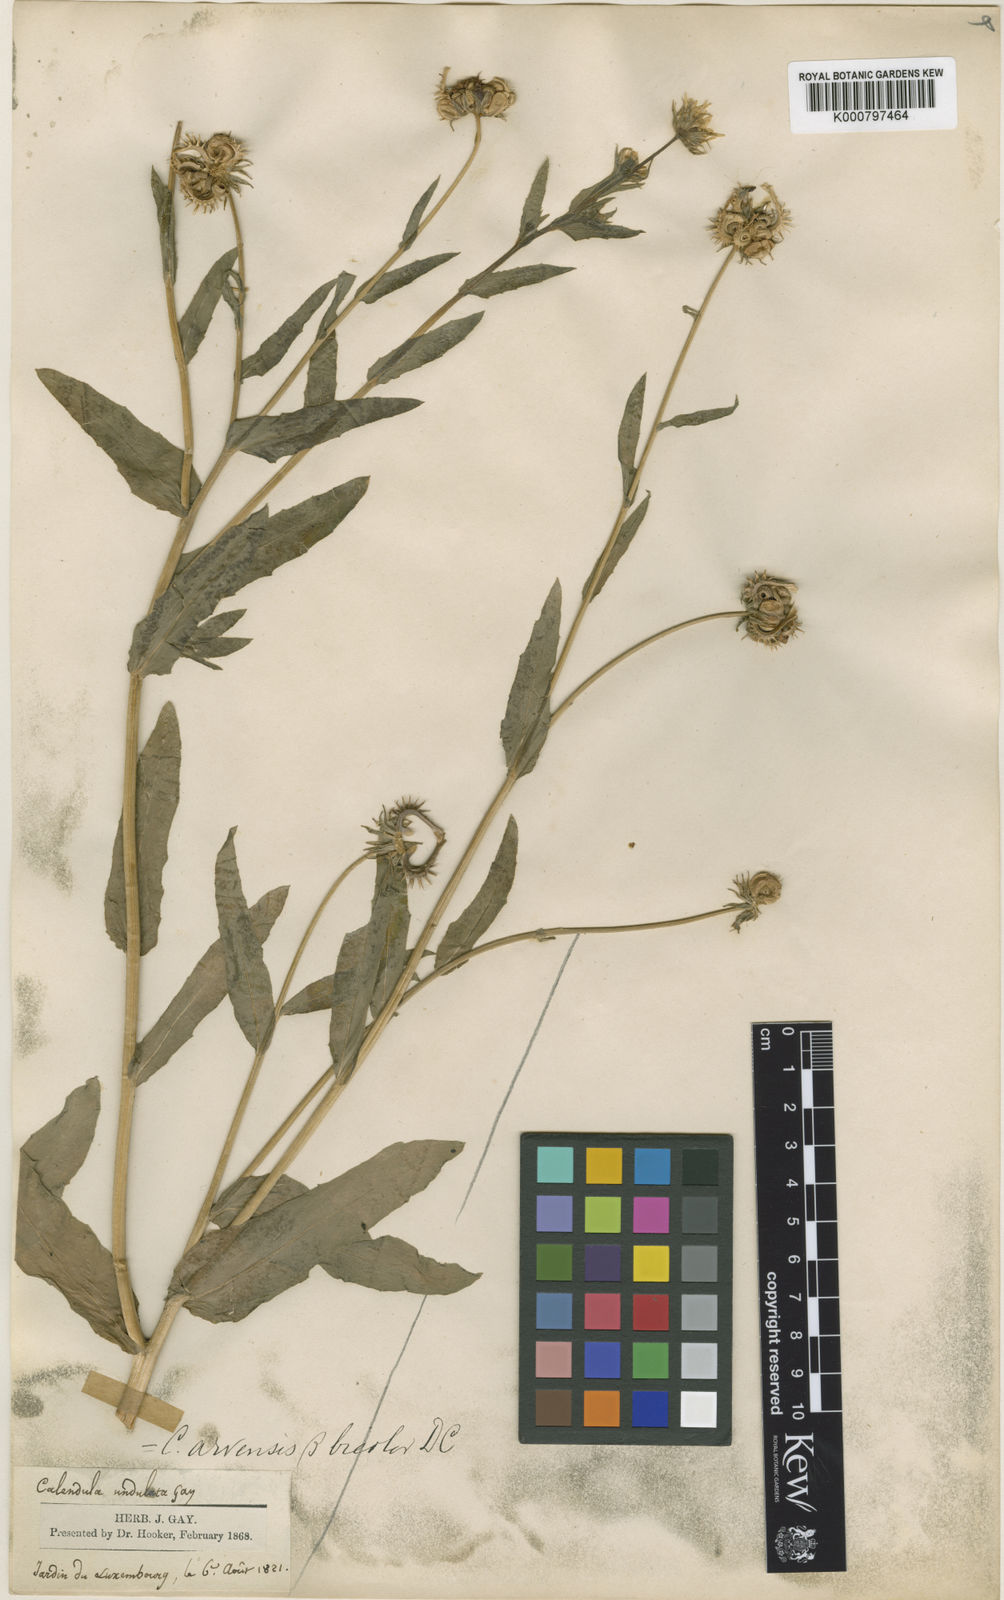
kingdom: Plantae
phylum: Tracheophyta
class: Magnoliopsida
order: Asterales
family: Asteraceae
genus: Calendula
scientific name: Calendula arvensis
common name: Field marigold
